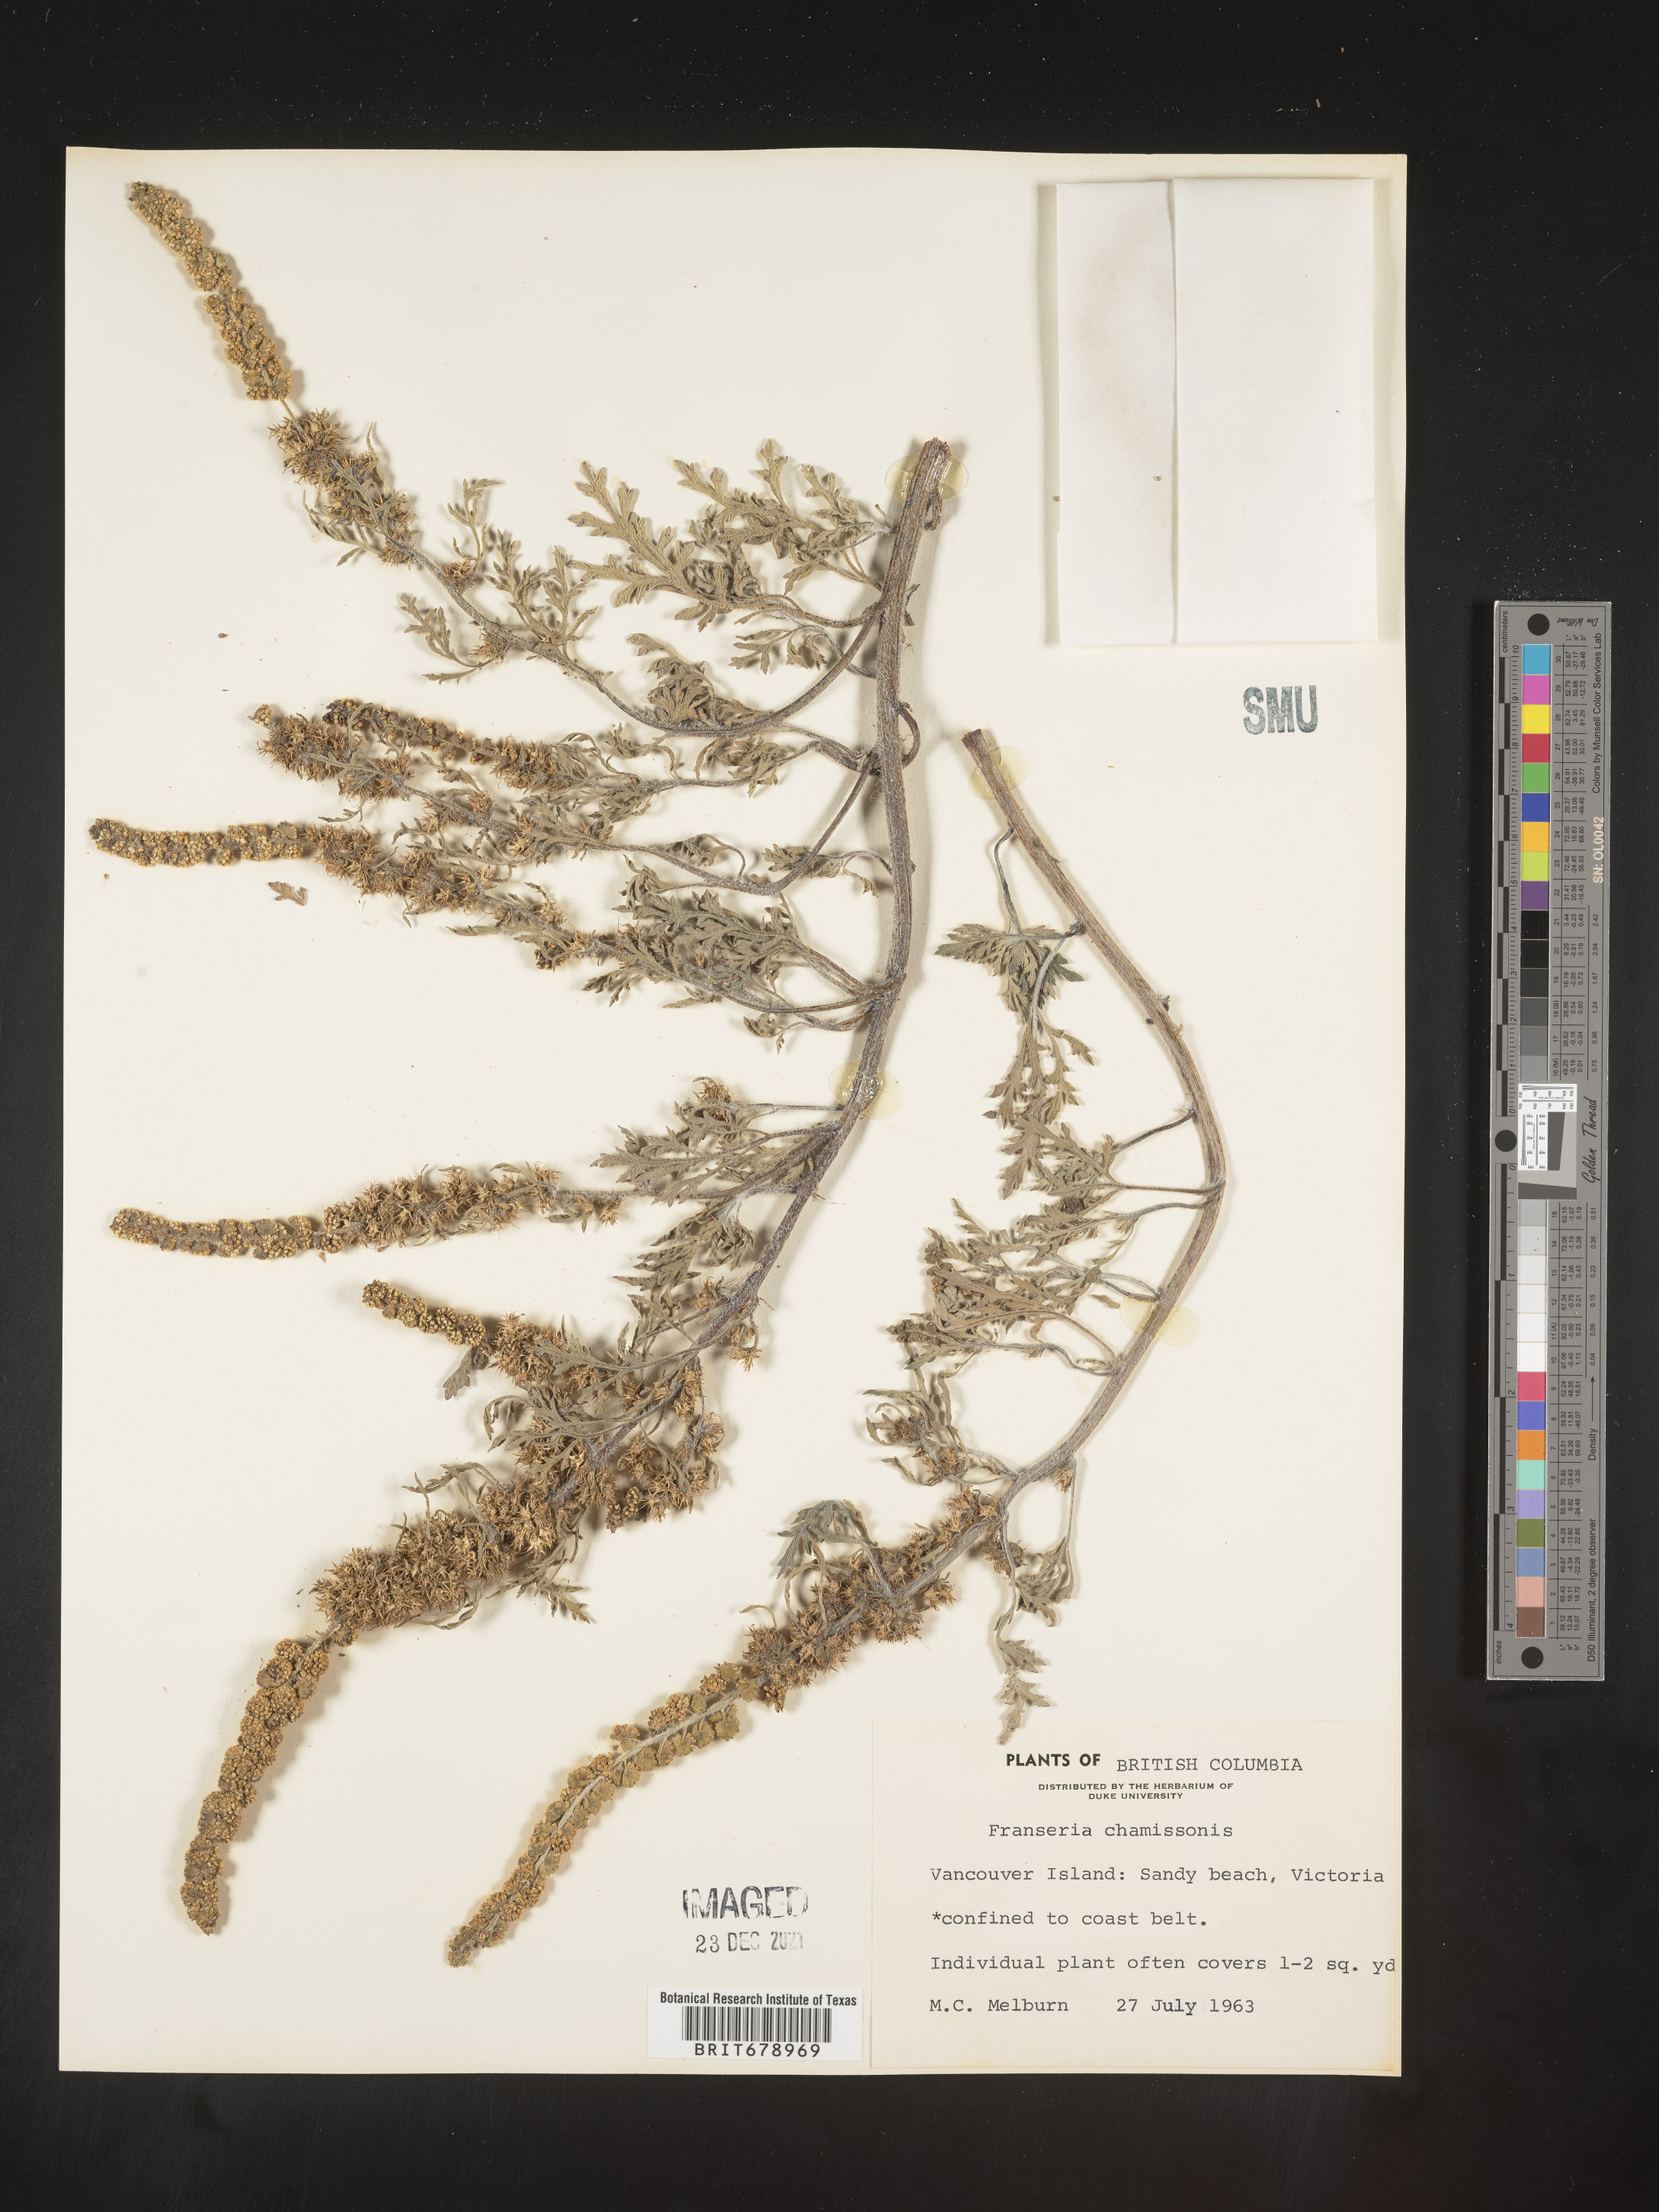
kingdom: Plantae
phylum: Tracheophyta
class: Magnoliopsida
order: Asterales
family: Asteraceae
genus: Ambrosia
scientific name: Ambrosia chamissonis
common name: Beachbur
